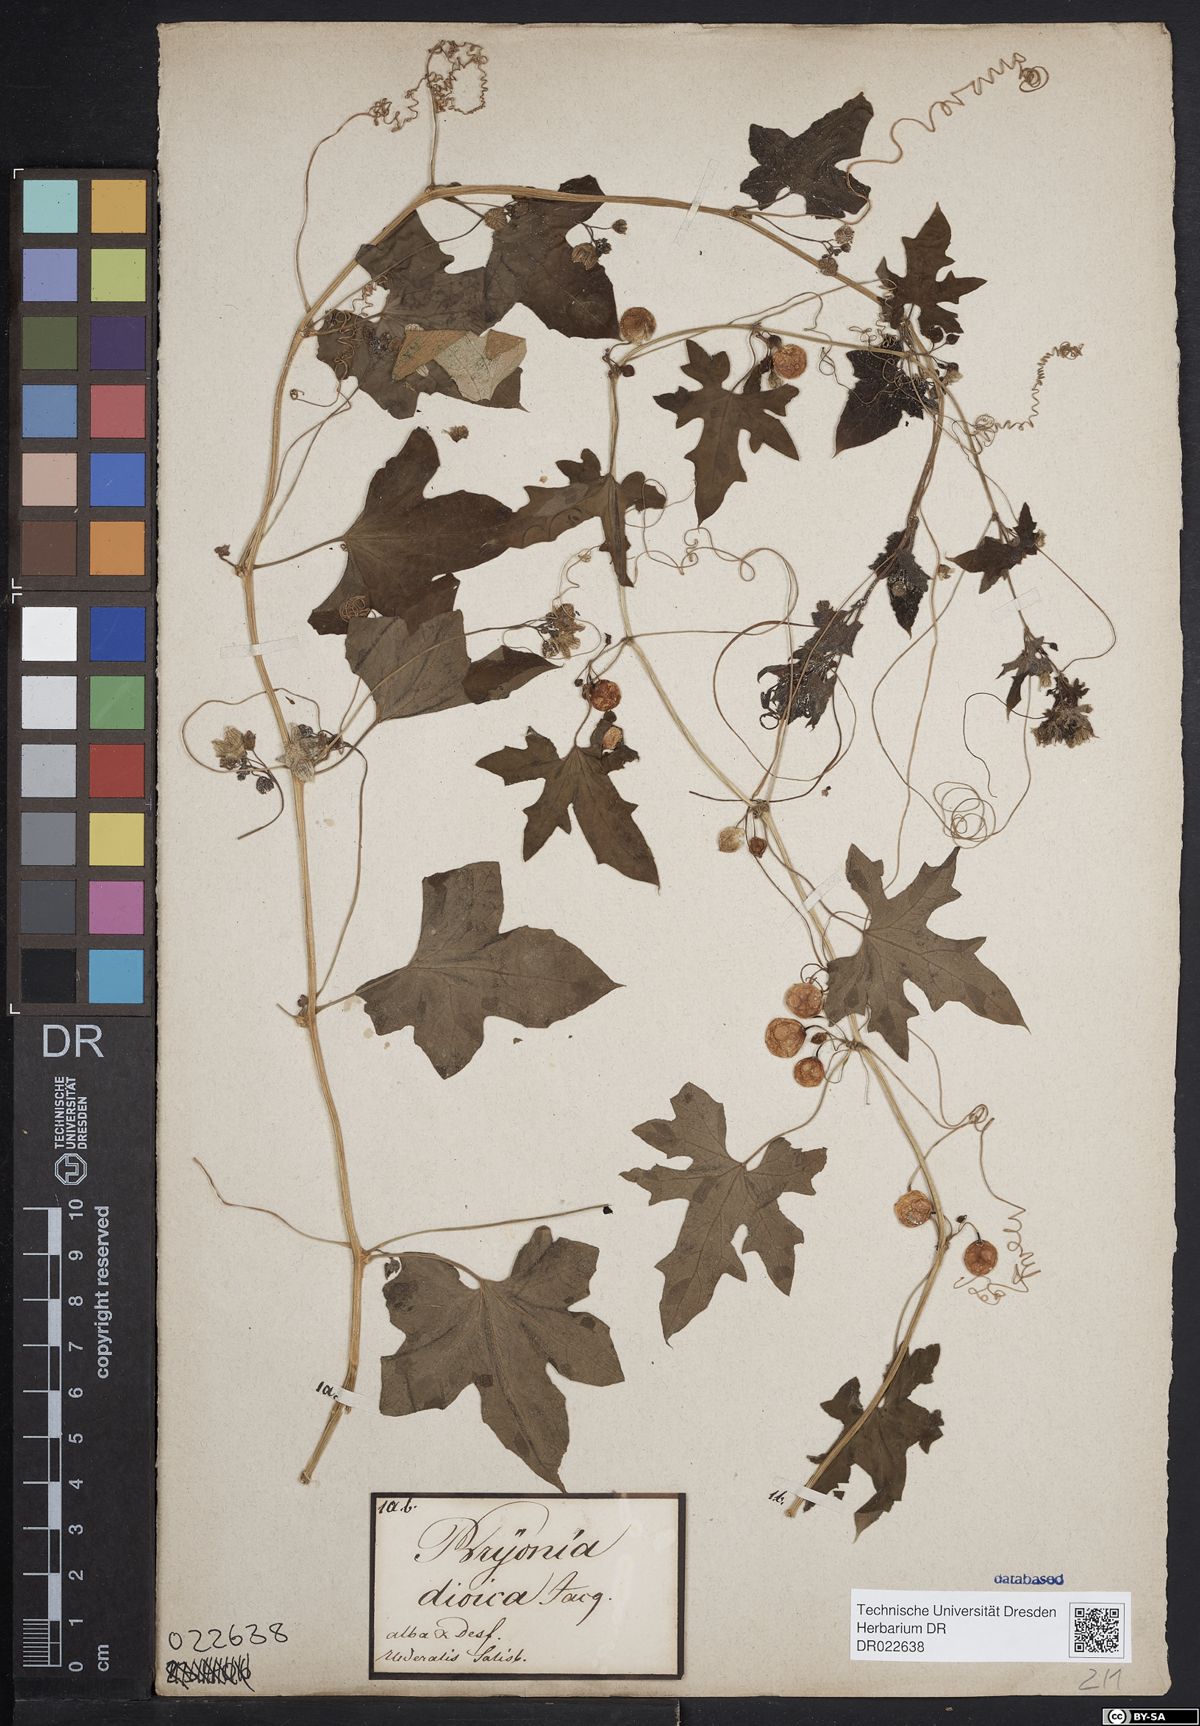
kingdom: Plantae
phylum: Tracheophyta
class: Magnoliopsida
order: Cucurbitales
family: Cucurbitaceae
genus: Bryonia
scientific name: Bryonia dioica
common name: White bryony
